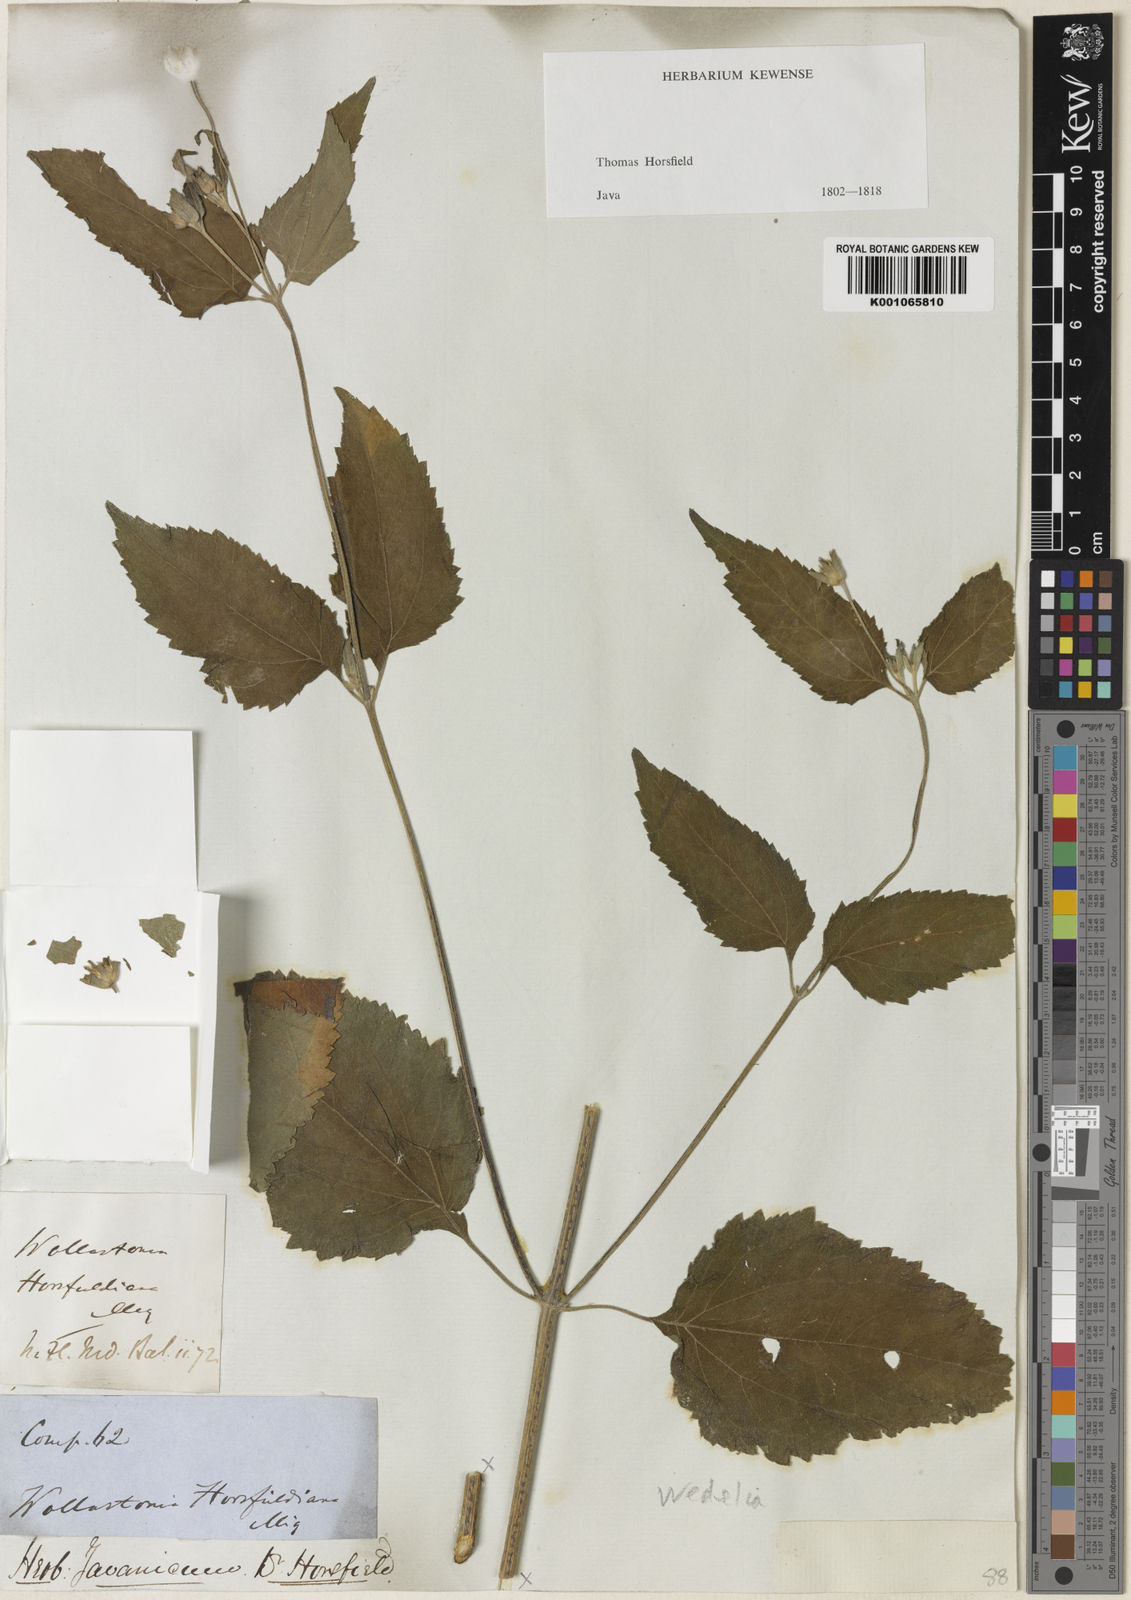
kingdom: Plantae
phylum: Tracheophyta
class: Magnoliopsida
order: Asterales
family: Asteraceae
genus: Indocypraea
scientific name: Indocypraea montana
